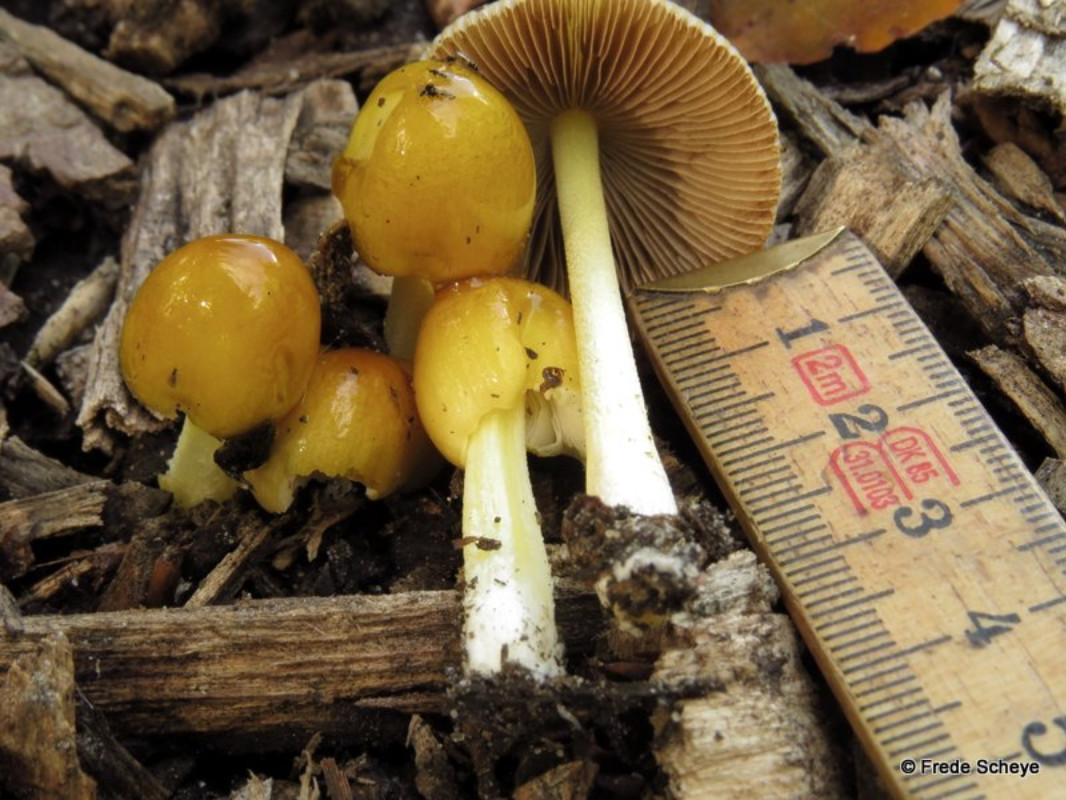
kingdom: Fungi
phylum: Basidiomycota
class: Agaricomycetes
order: Agaricales
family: Bolbitiaceae
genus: Bolbitius
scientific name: Bolbitius titubans
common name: almindelig gulhat
